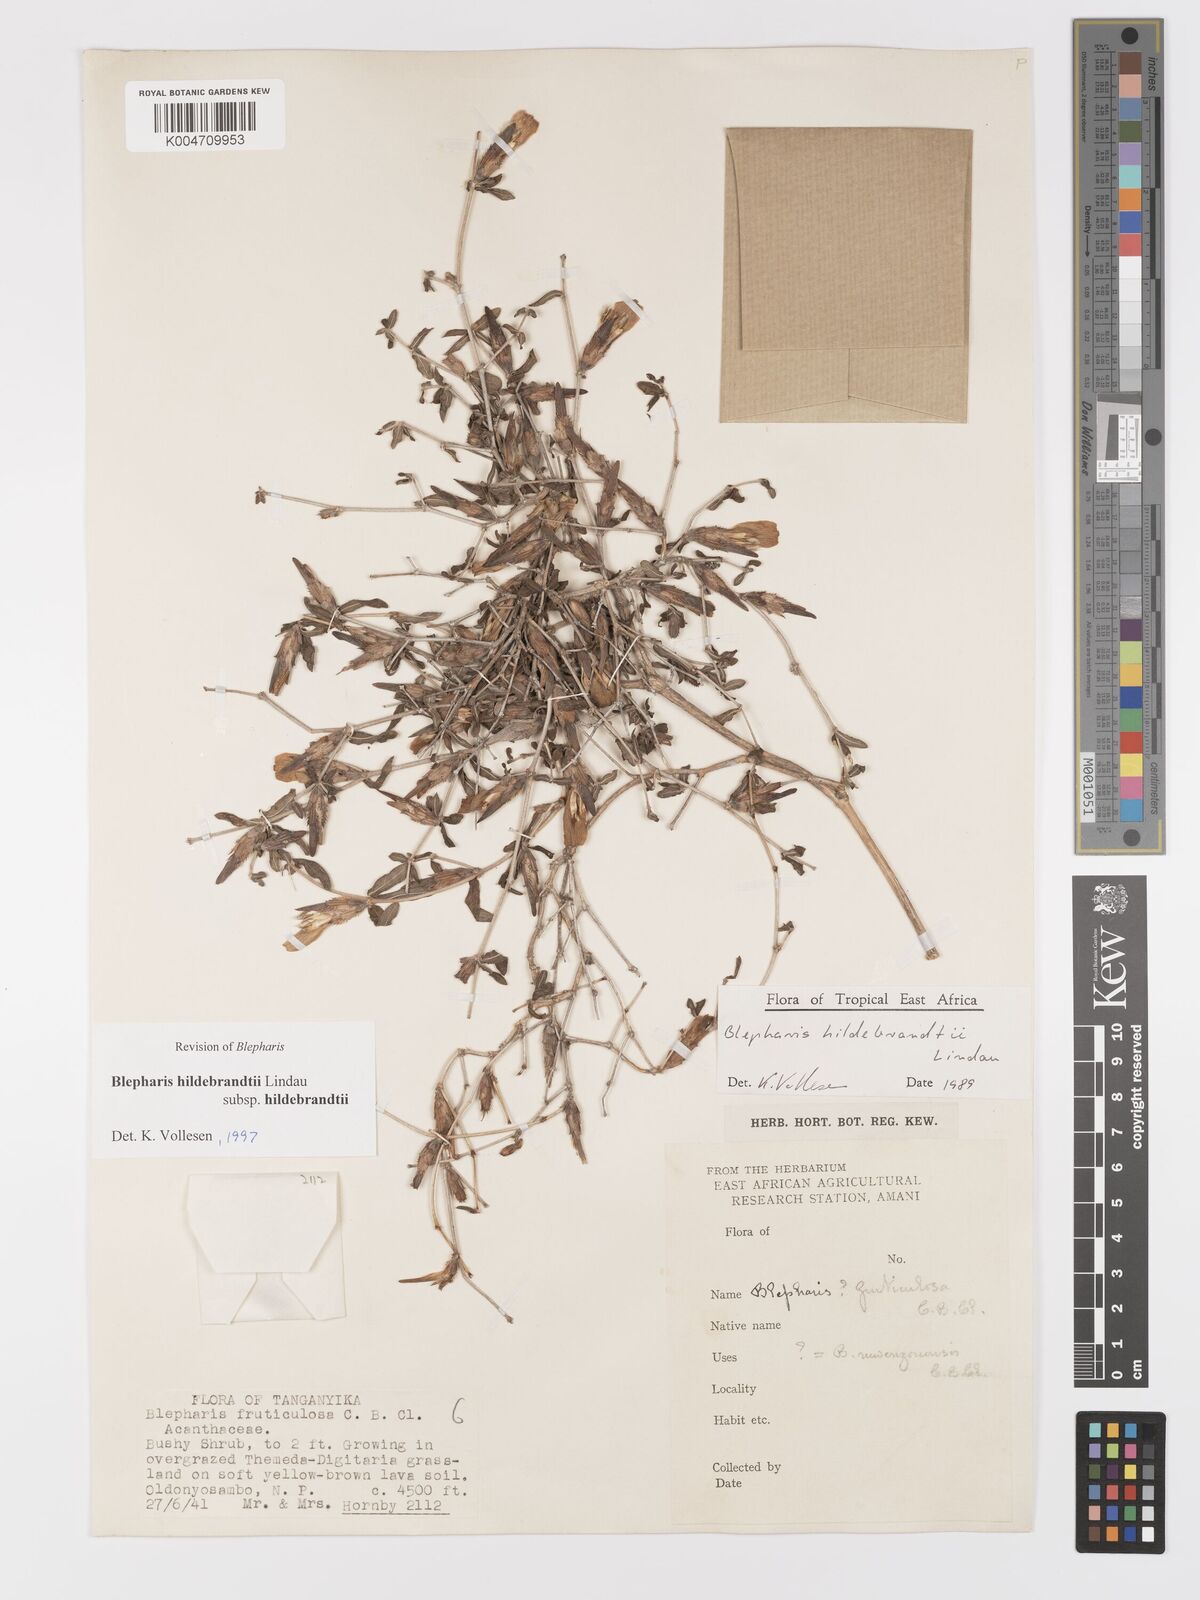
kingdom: Plantae
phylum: Tracheophyta
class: Magnoliopsida
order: Lamiales
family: Acanthaceae
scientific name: Acanthaceae
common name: Acanthaceae
